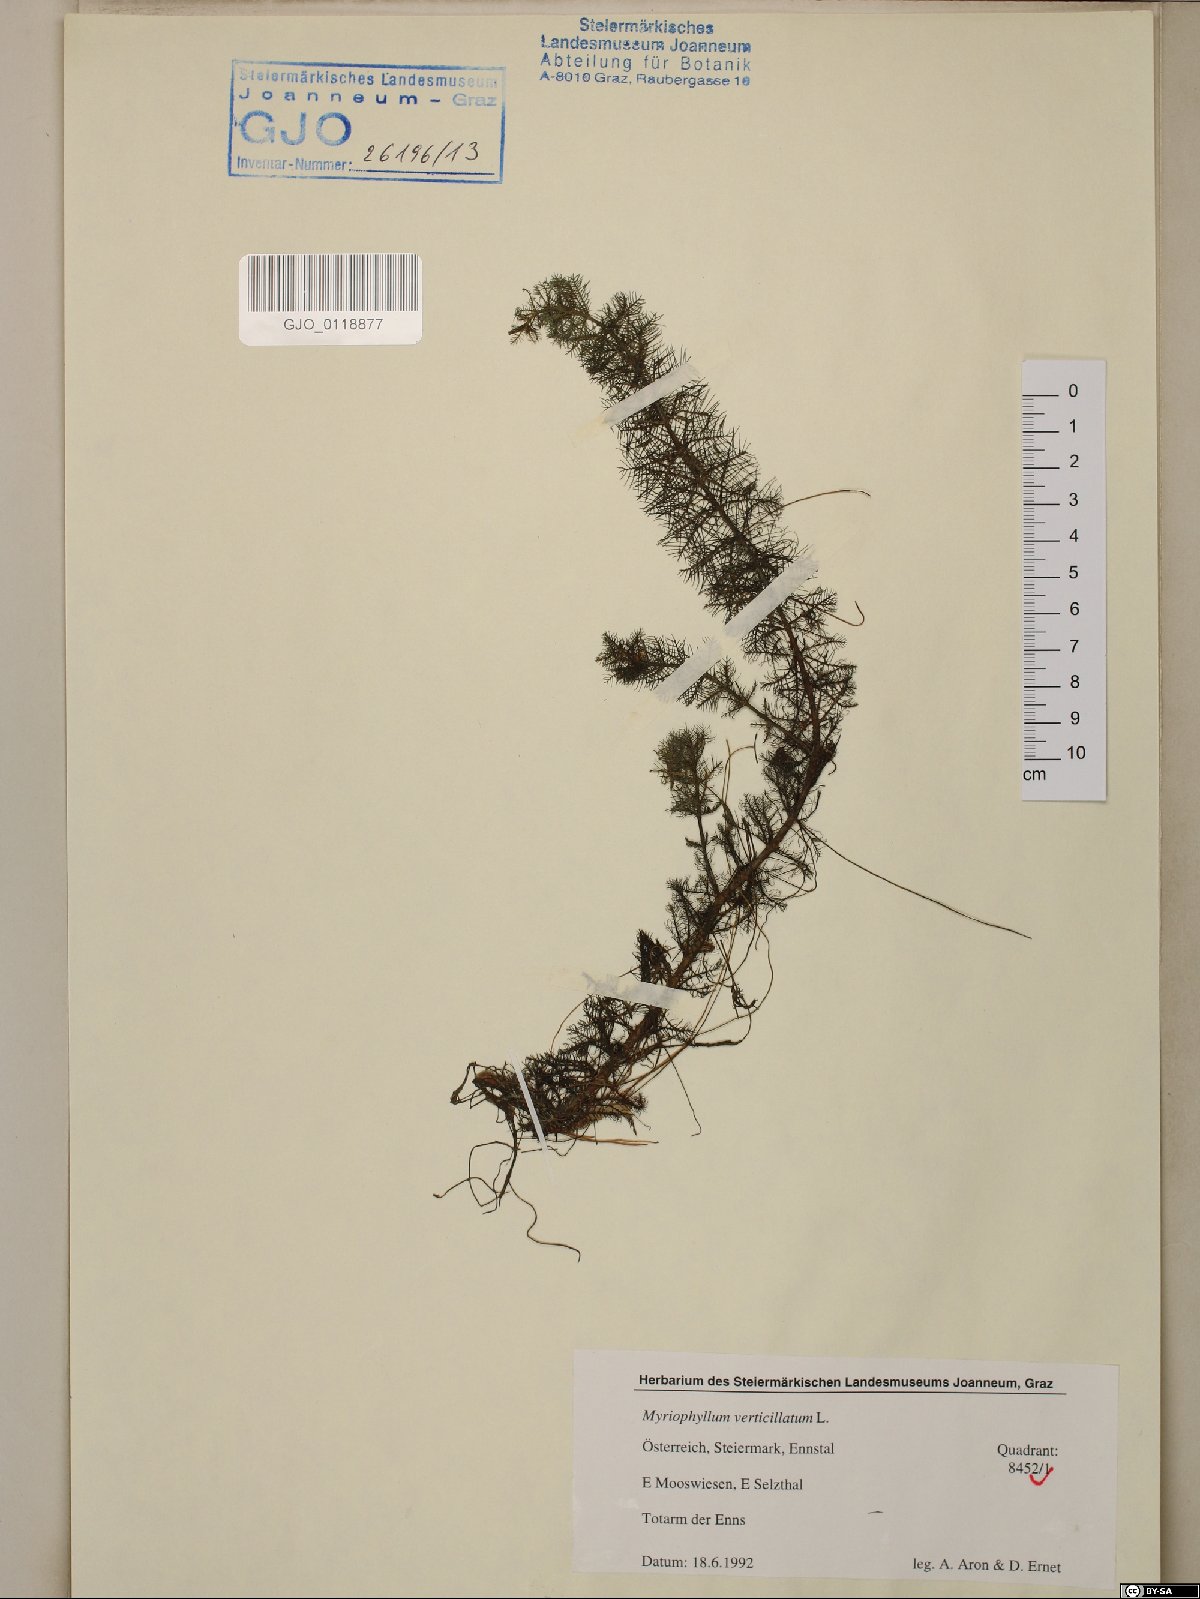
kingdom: Plantae
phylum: Tracheophyta
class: Magnoliopsida
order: Saxifragales
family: Haloragaceae
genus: Myriophyllum
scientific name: Myriophyllum verticillatum
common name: Whorled water-milfoil
